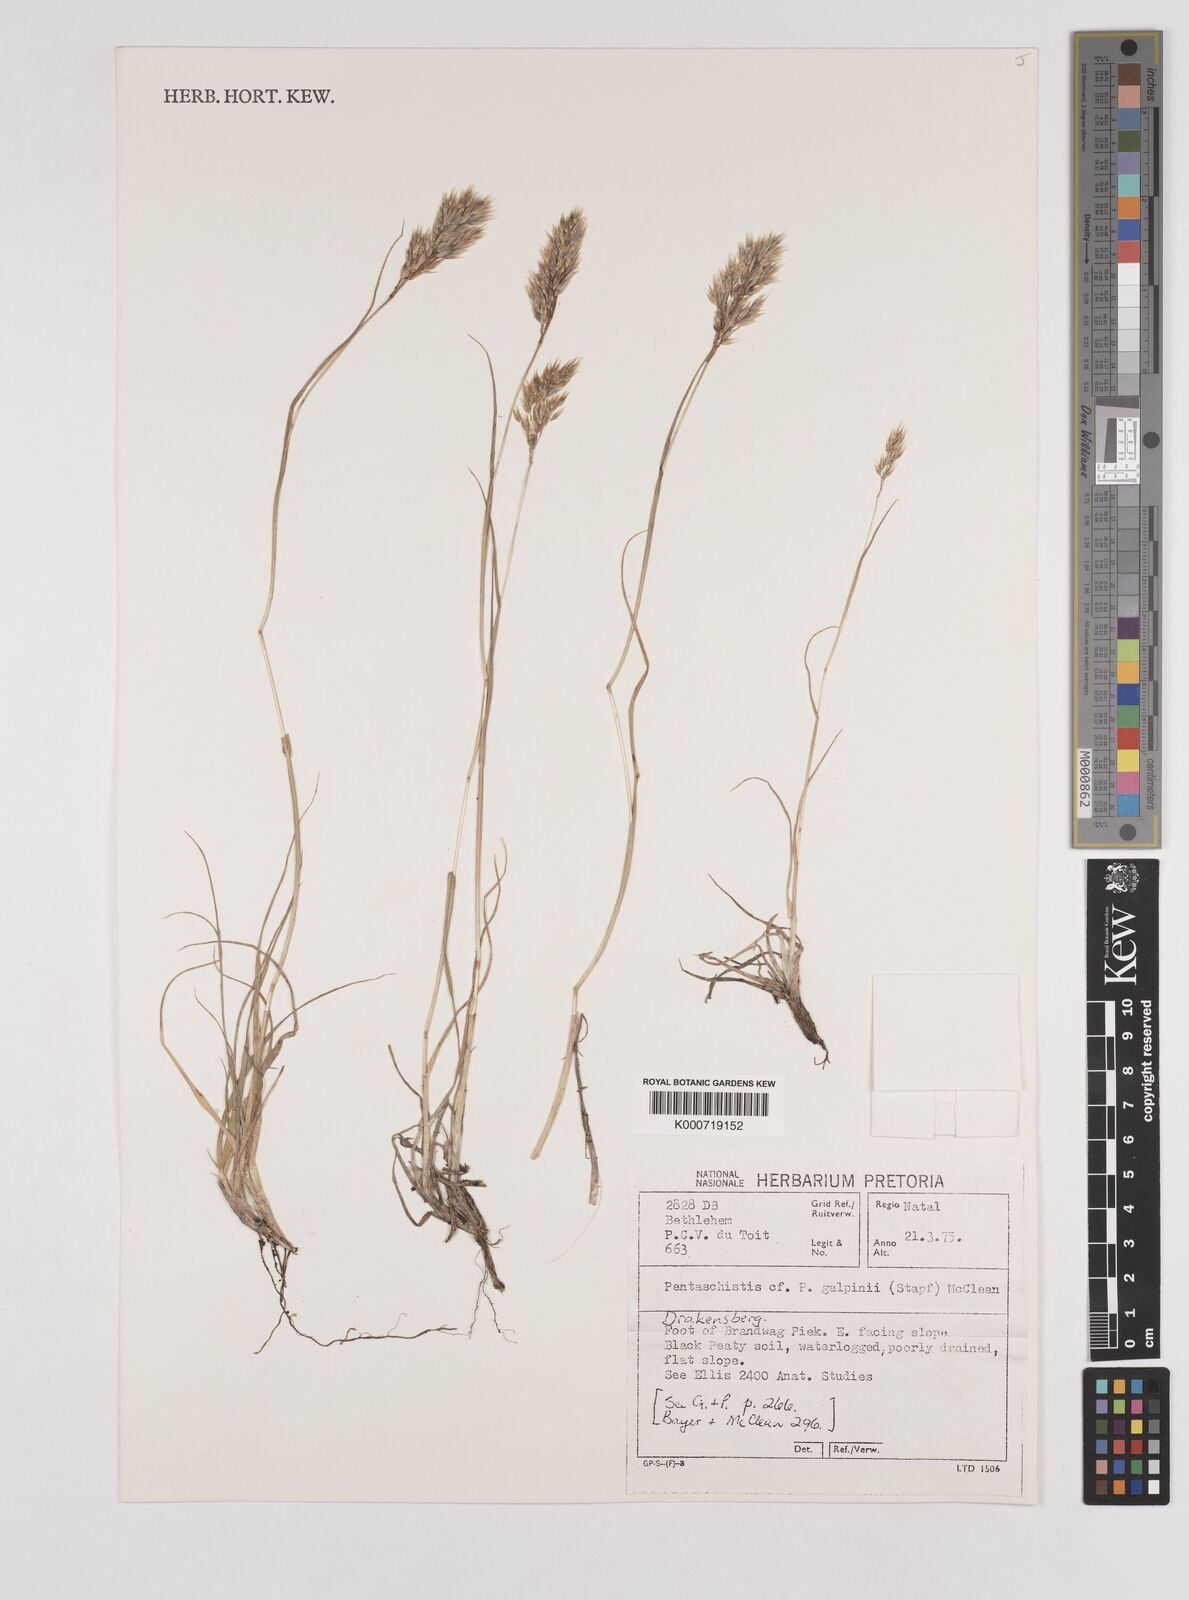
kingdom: Plantae
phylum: Tracheophyta
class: Liliopsida
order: Poales
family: Poaceae
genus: Pentameris
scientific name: Pentameris galpinii
